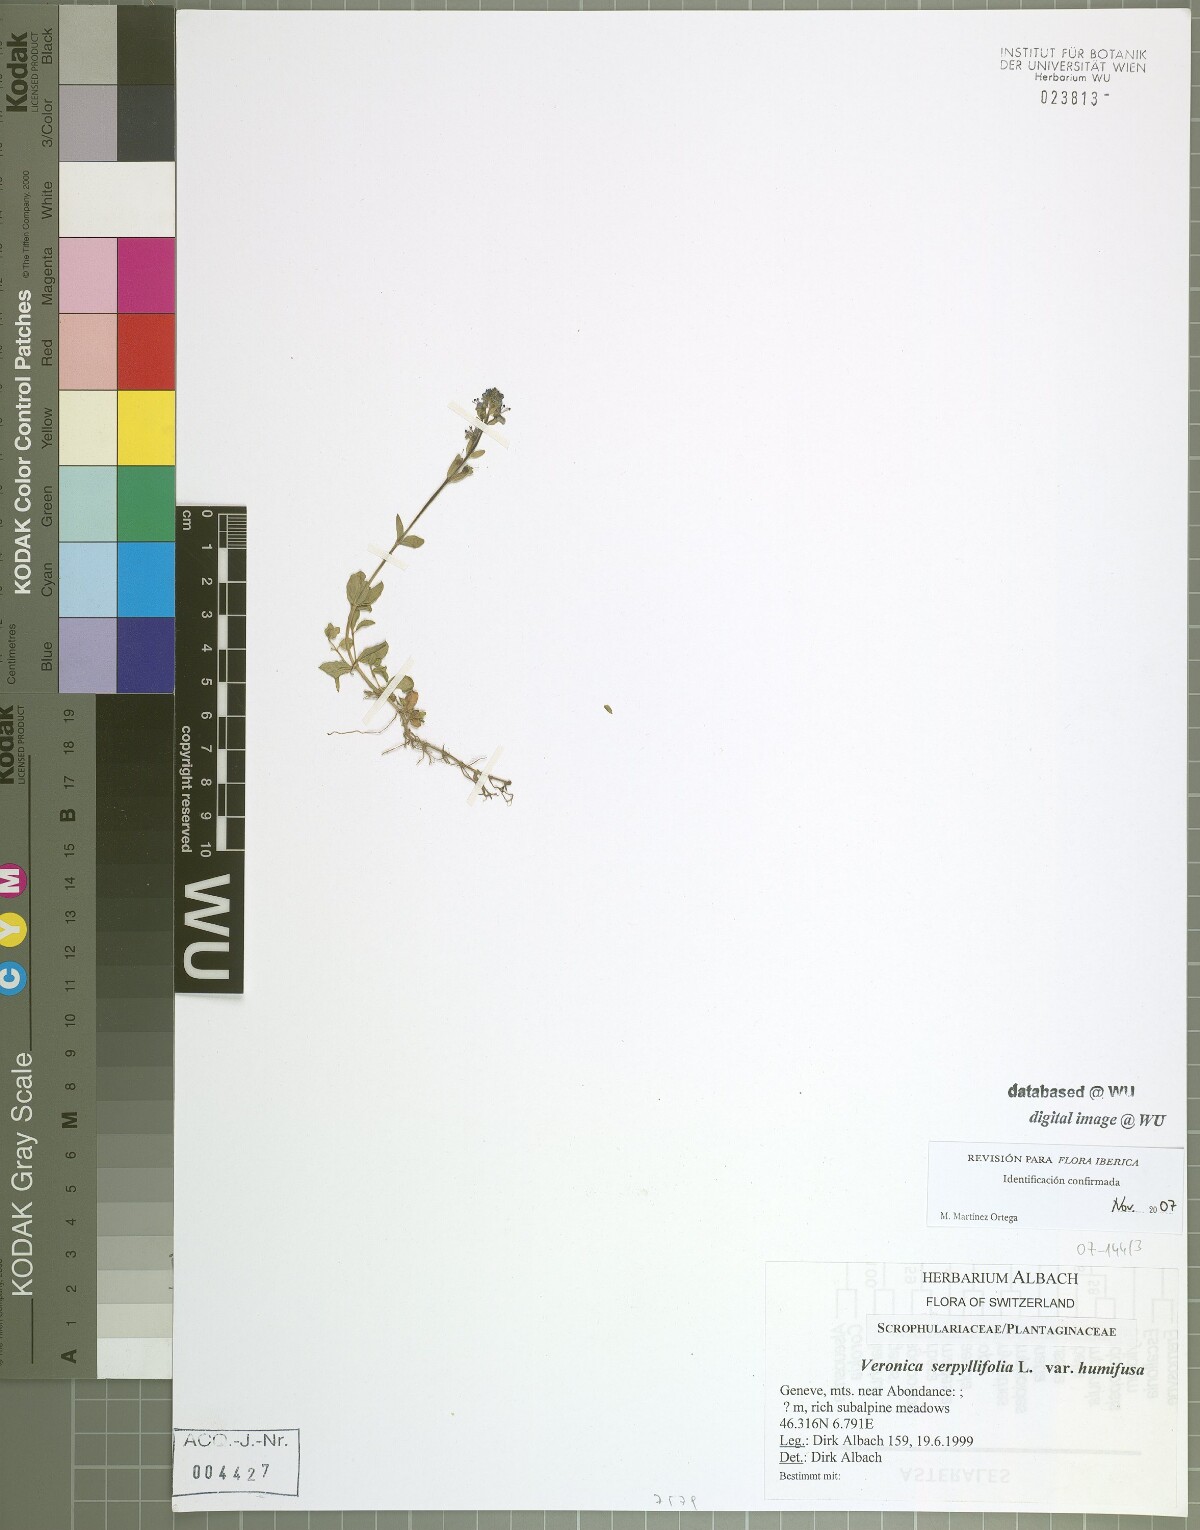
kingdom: Plantae
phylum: Tracheophyta
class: Magnoliopsida
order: Lamiales
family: Plantaginaceae
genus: Veronica
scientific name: Veronica serpyllifolia
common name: Thyme-leaved speedwell
